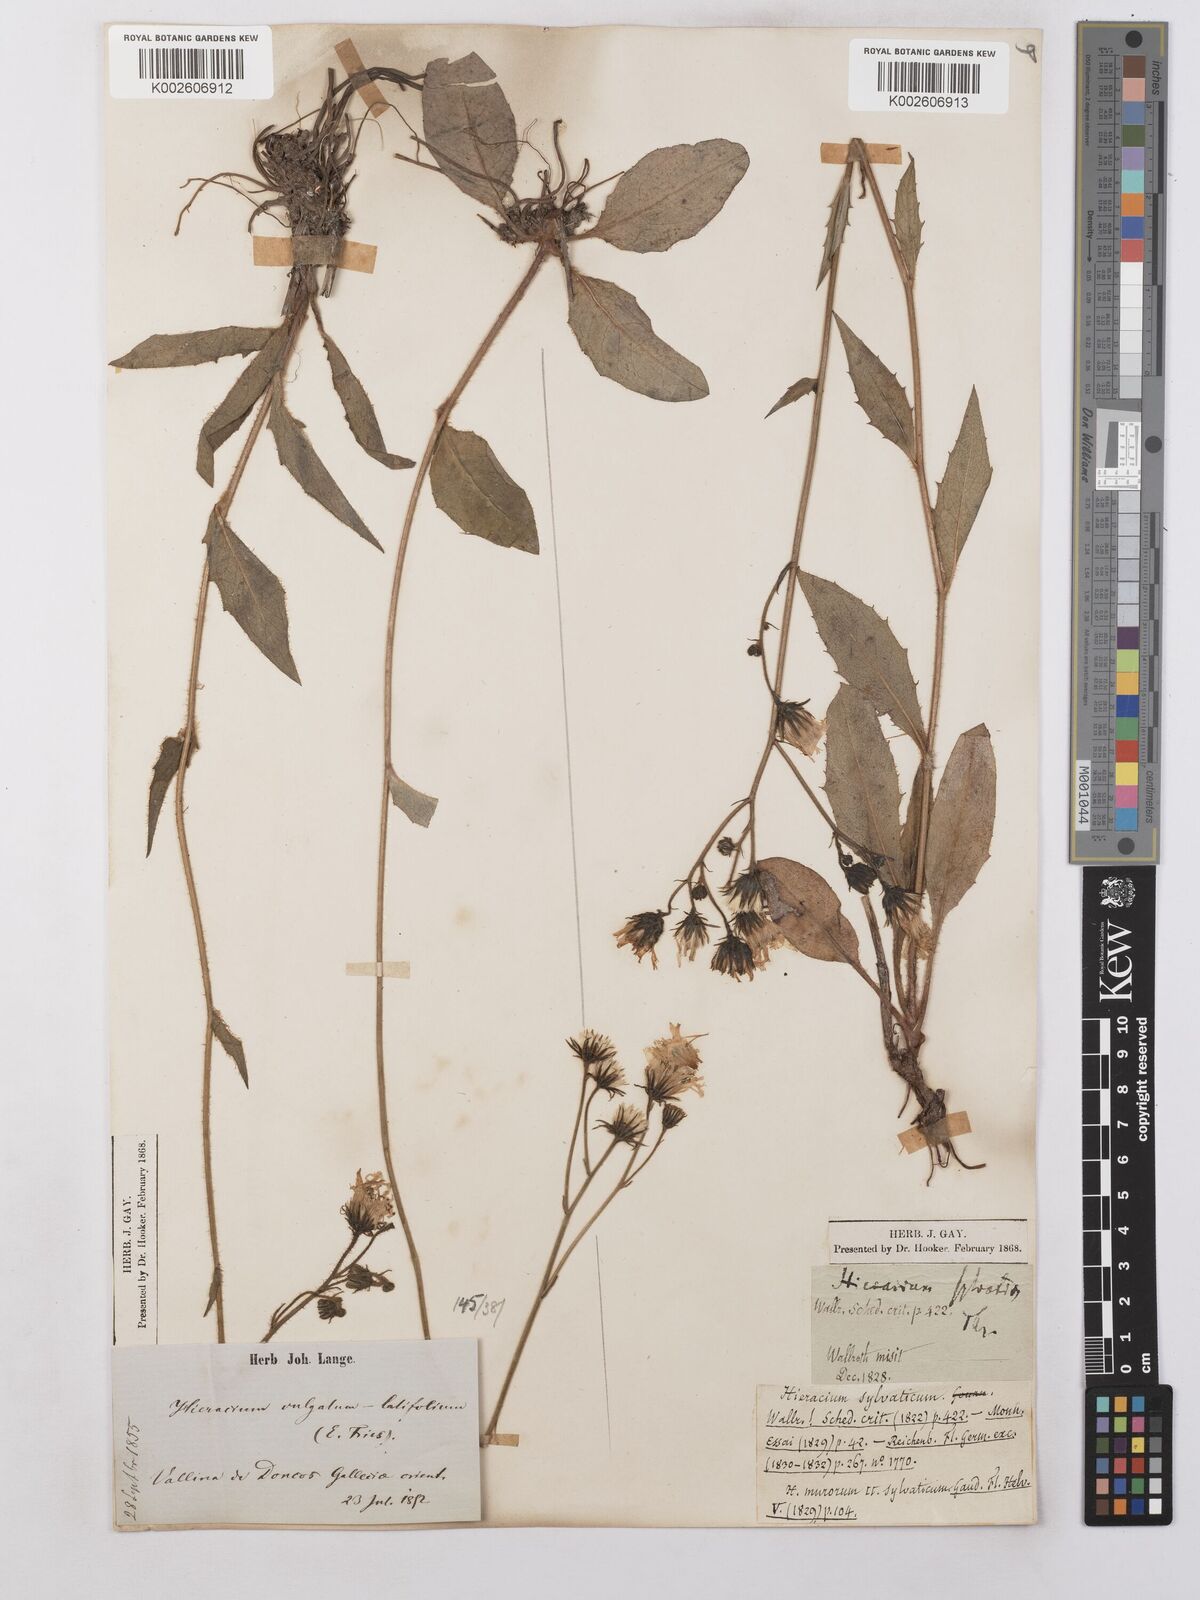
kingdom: Plantae
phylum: Tracheophyta
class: Magnoliopsida
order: Asterales
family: Asteraceae
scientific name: Asteraceae
